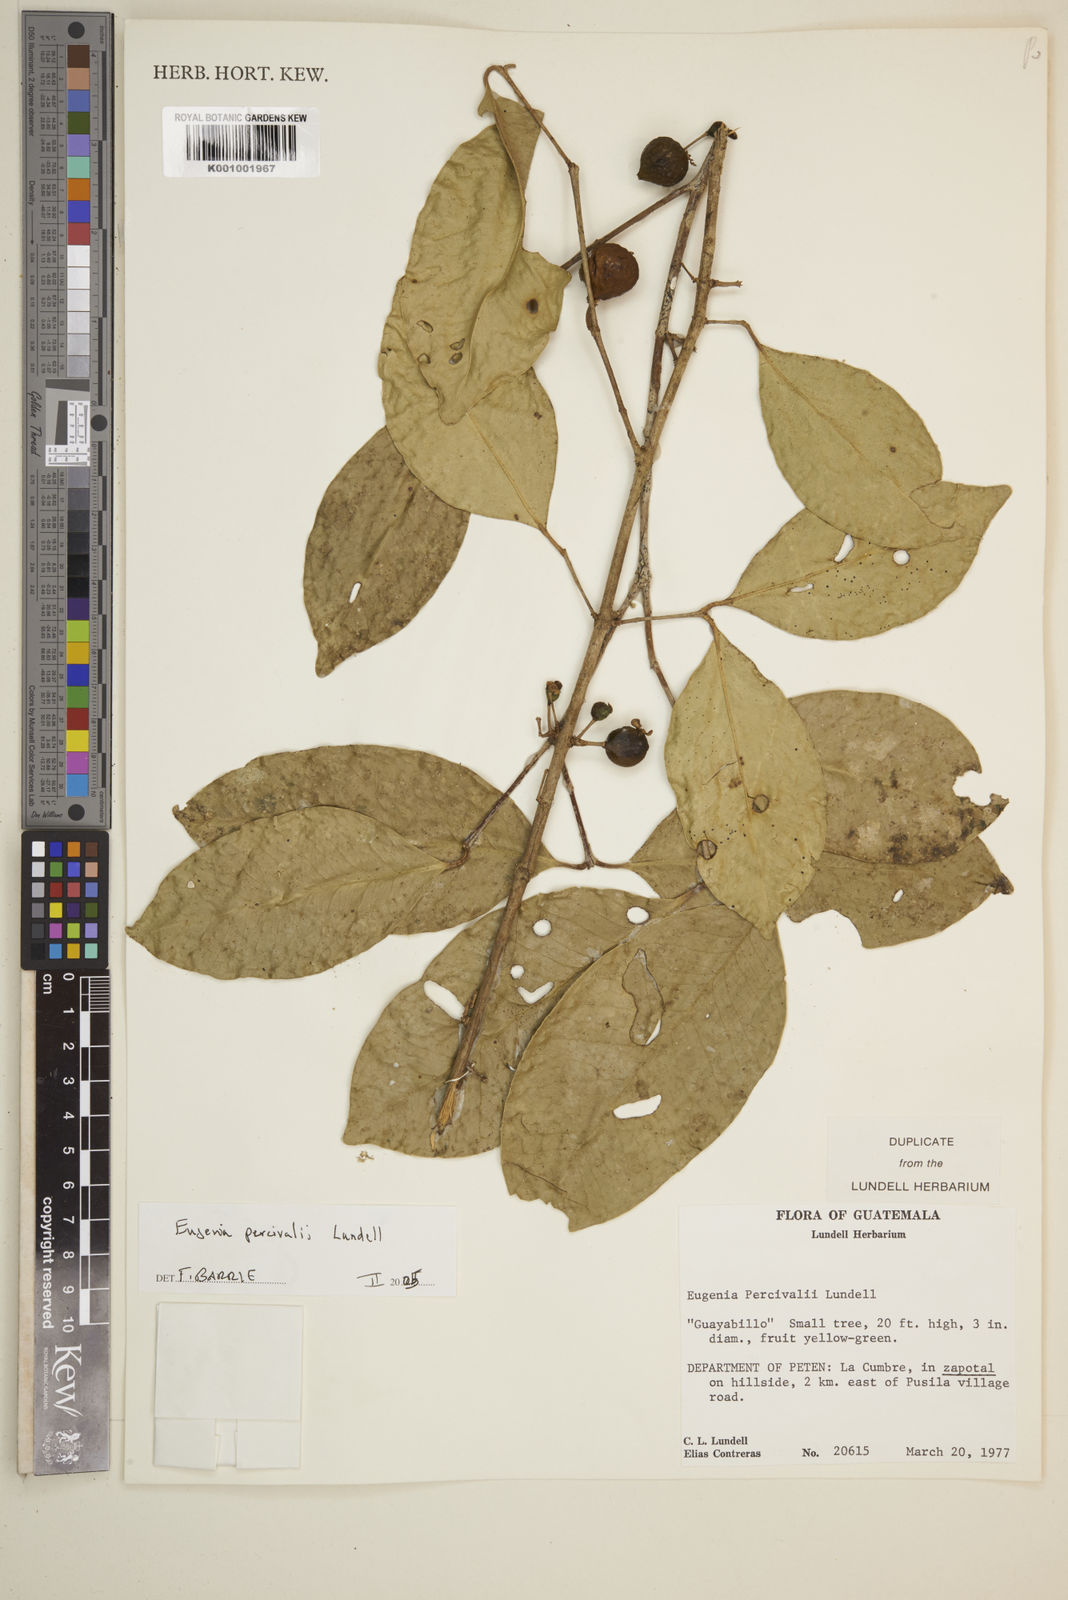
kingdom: Plantae
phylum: Tracheophyta
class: Magnoliopsida
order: Myrtales
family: Myrtaceae
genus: Eugenia
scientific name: Eugenia percivalii
